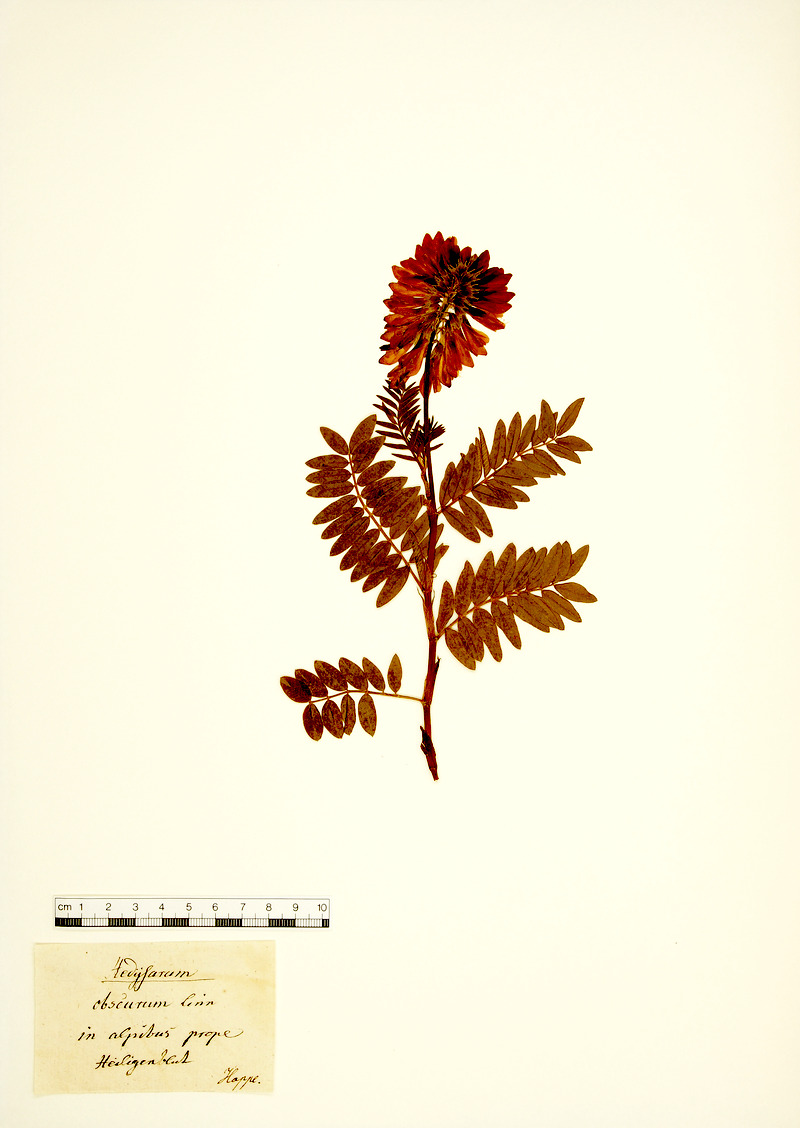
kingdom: Plantae
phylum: Tracheophyta
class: Magnoliopsida
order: Fabales
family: Fabaceae
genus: Hedysarum
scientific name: Hedysarum hedysaroides
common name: Alpine french-honeysuckle
